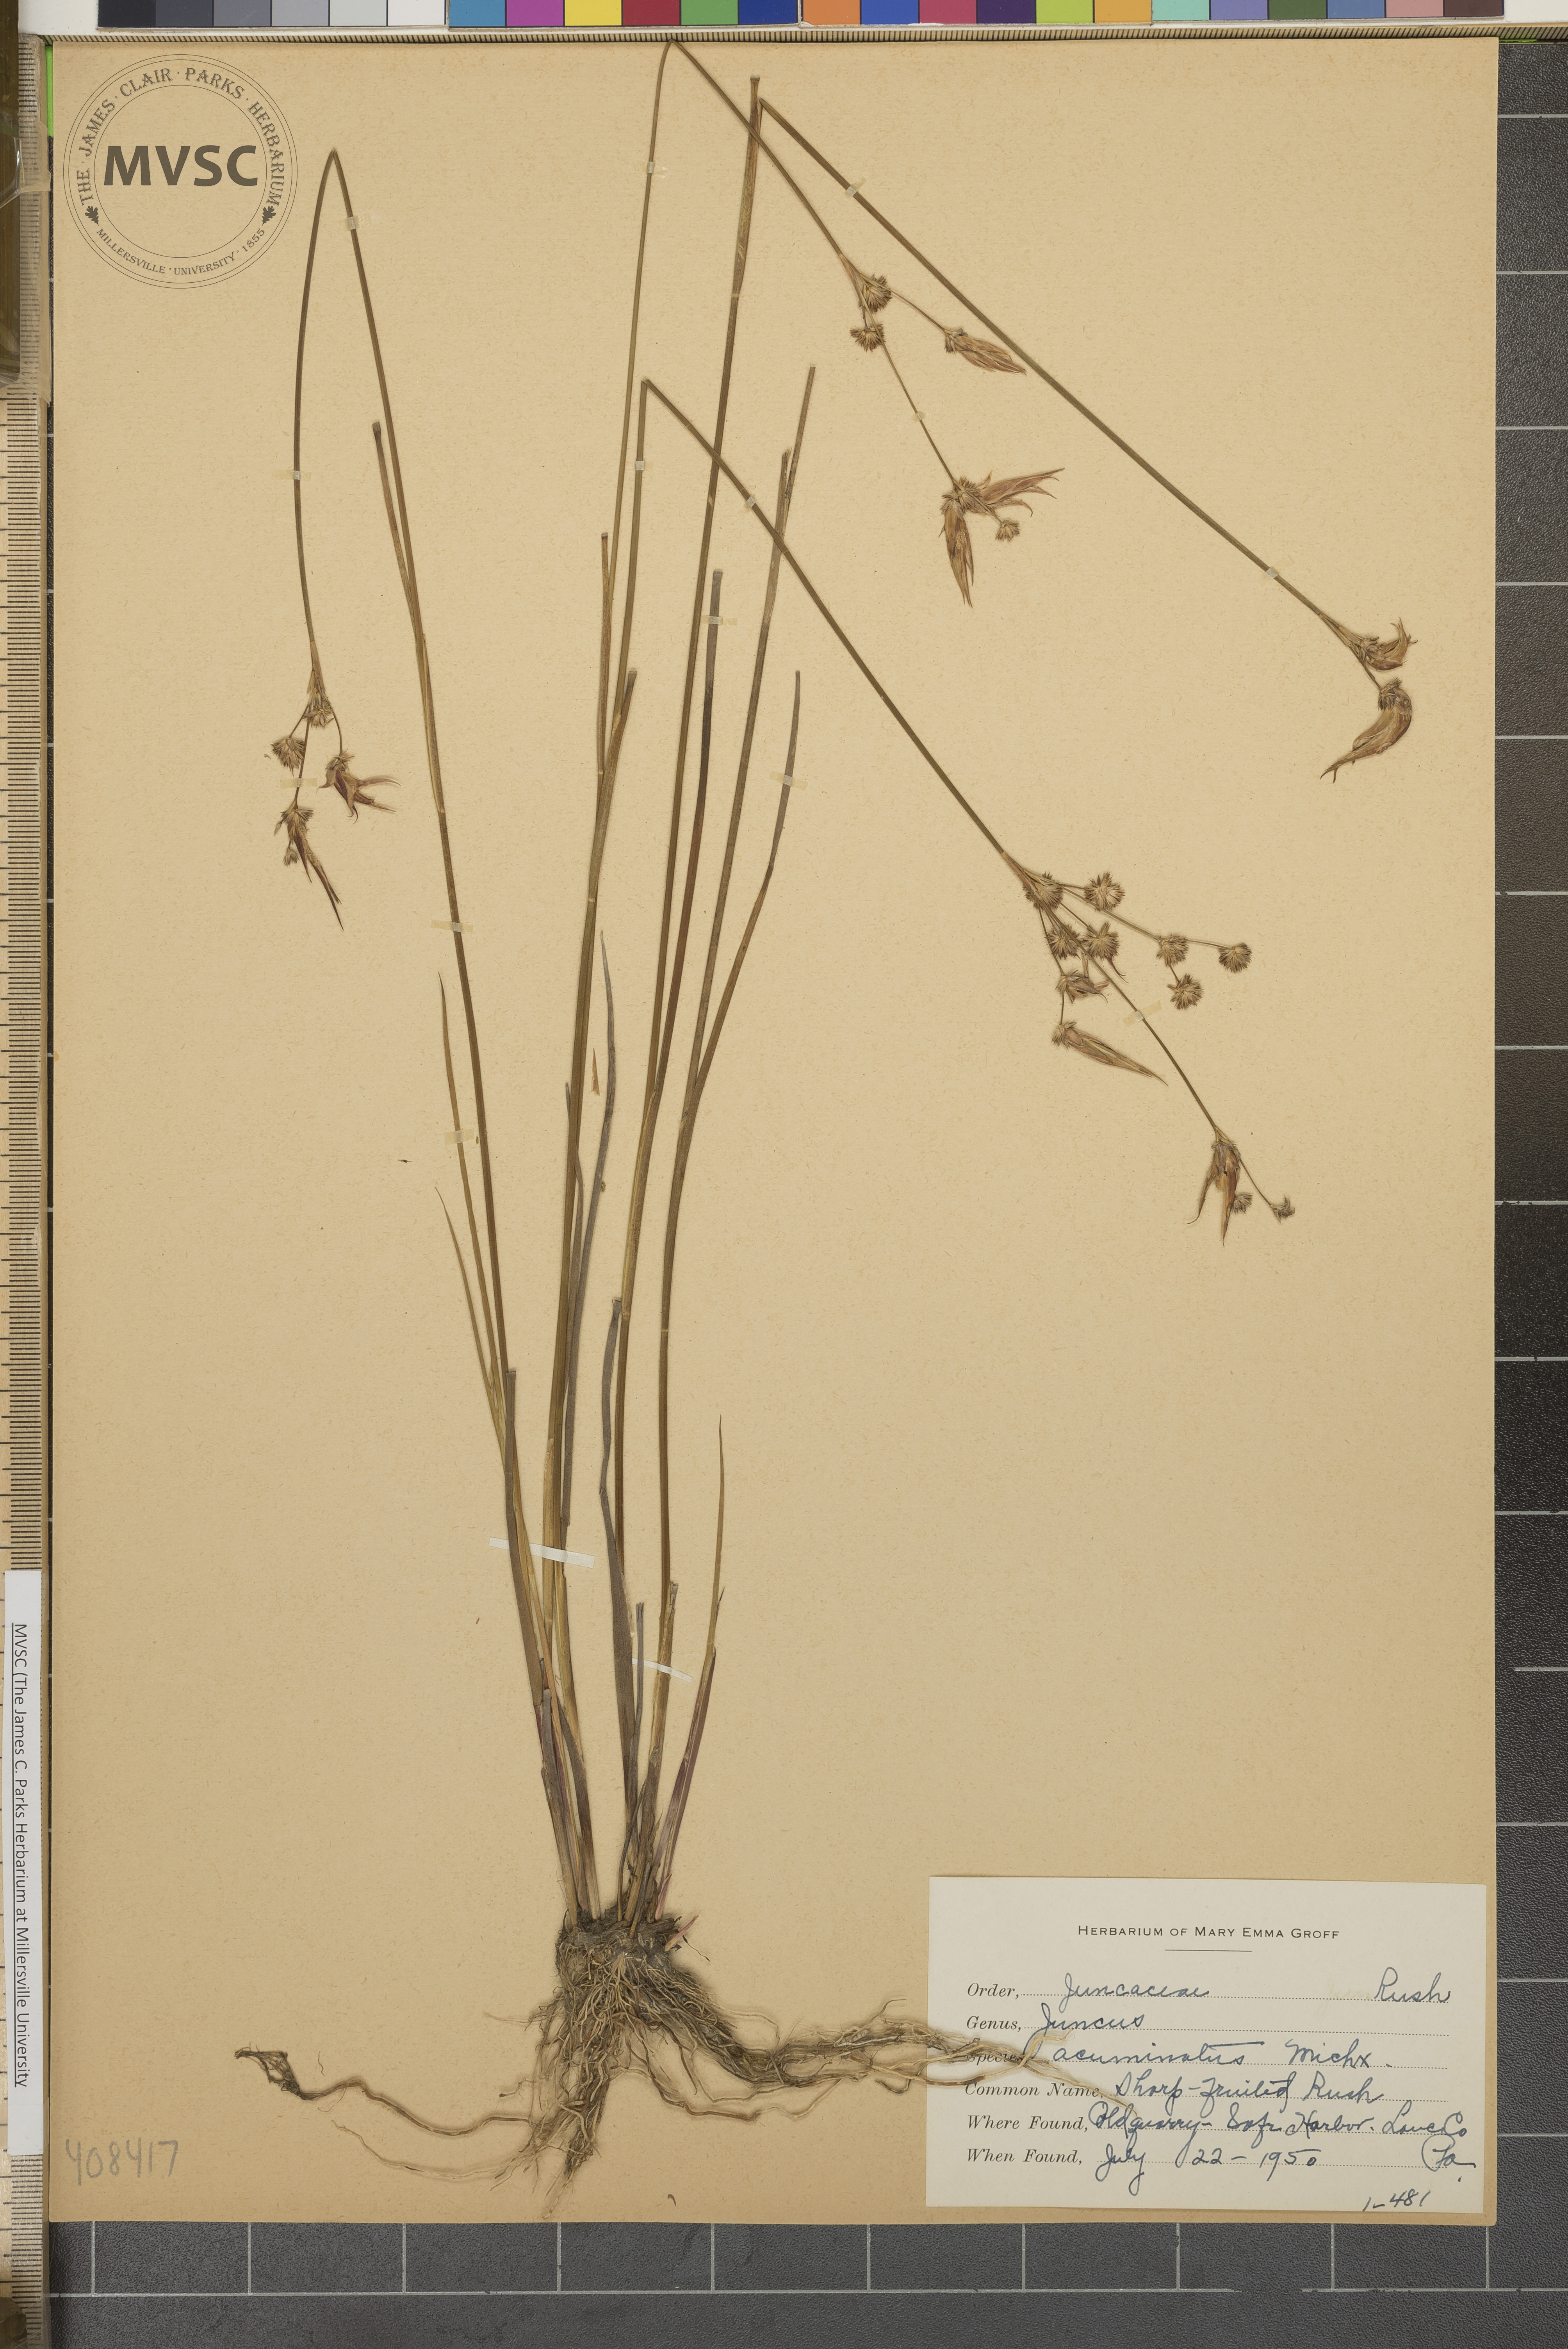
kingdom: Plantae
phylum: Tracheophyta
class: Liliopsida
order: Poales
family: Juncaceae
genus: Juncus
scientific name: Juncus acuminatus
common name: Sharp-fruited Rush
